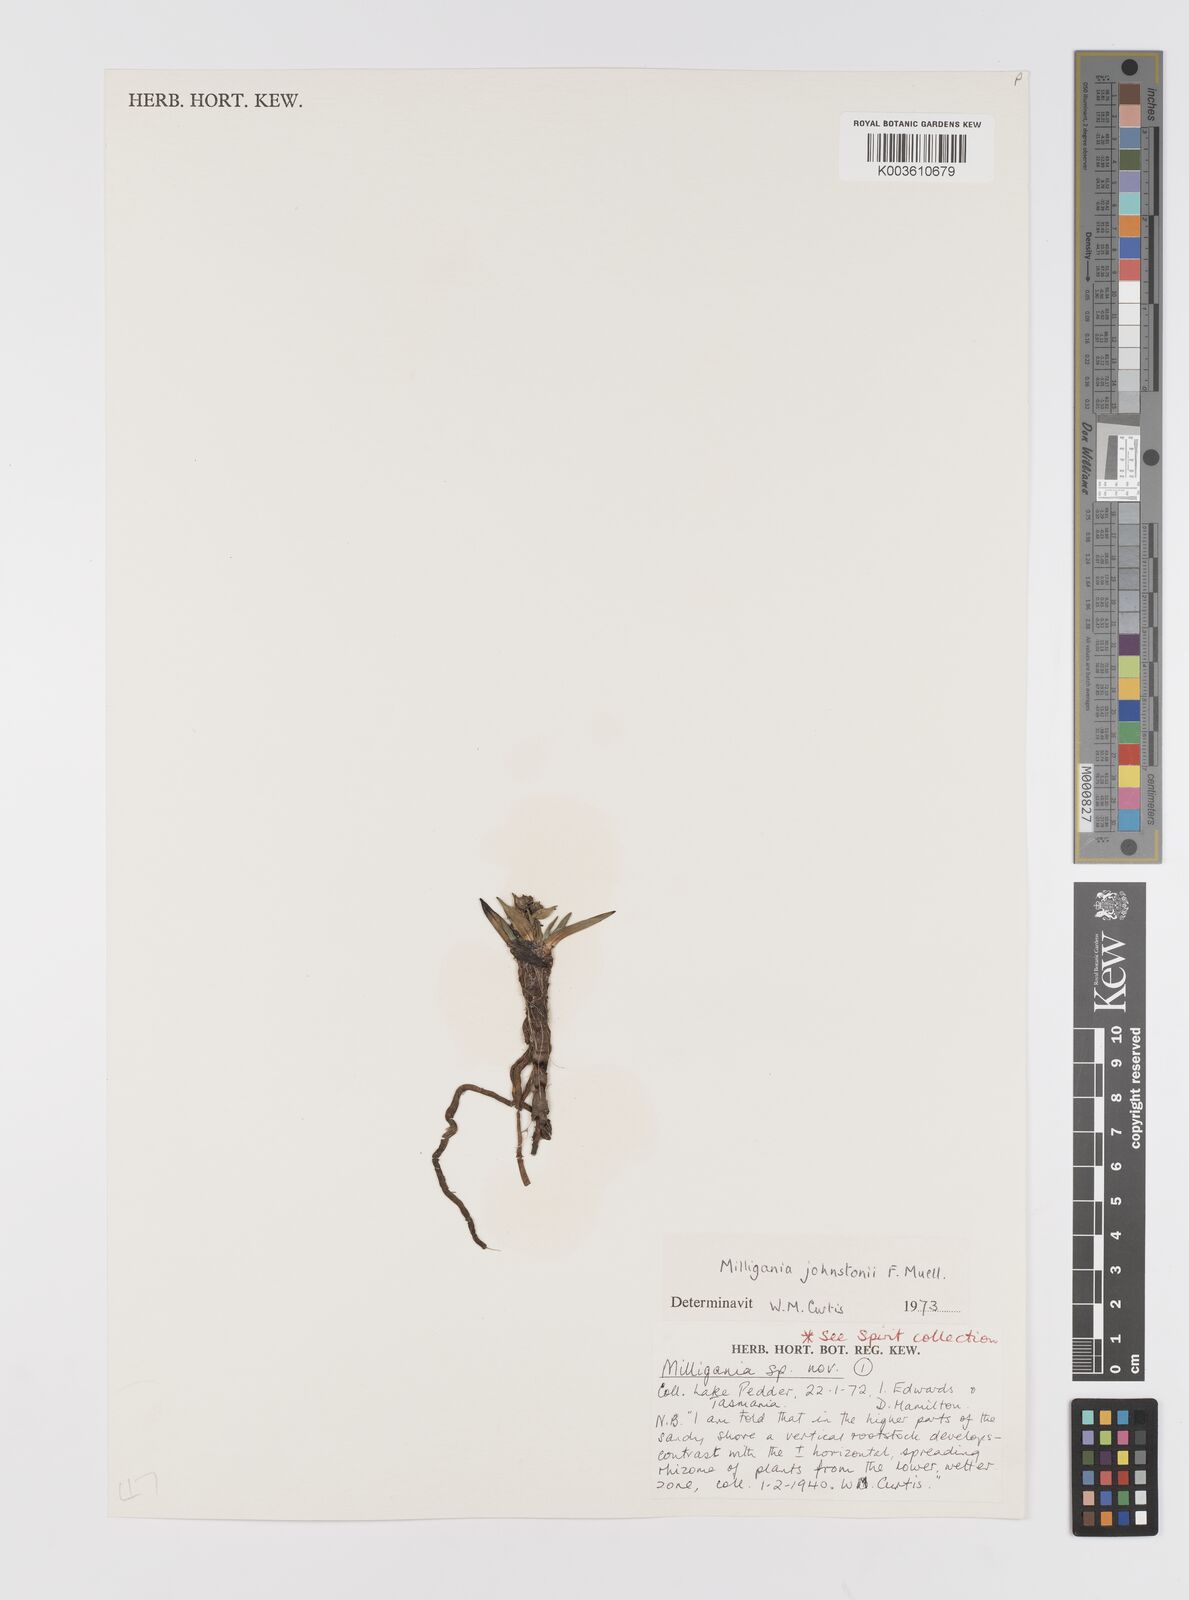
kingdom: Plantae
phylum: Tracheophyta
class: Liliopsida
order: Asparagales
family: Asteliaceae
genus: Milligania
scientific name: Milligania johnstonii
